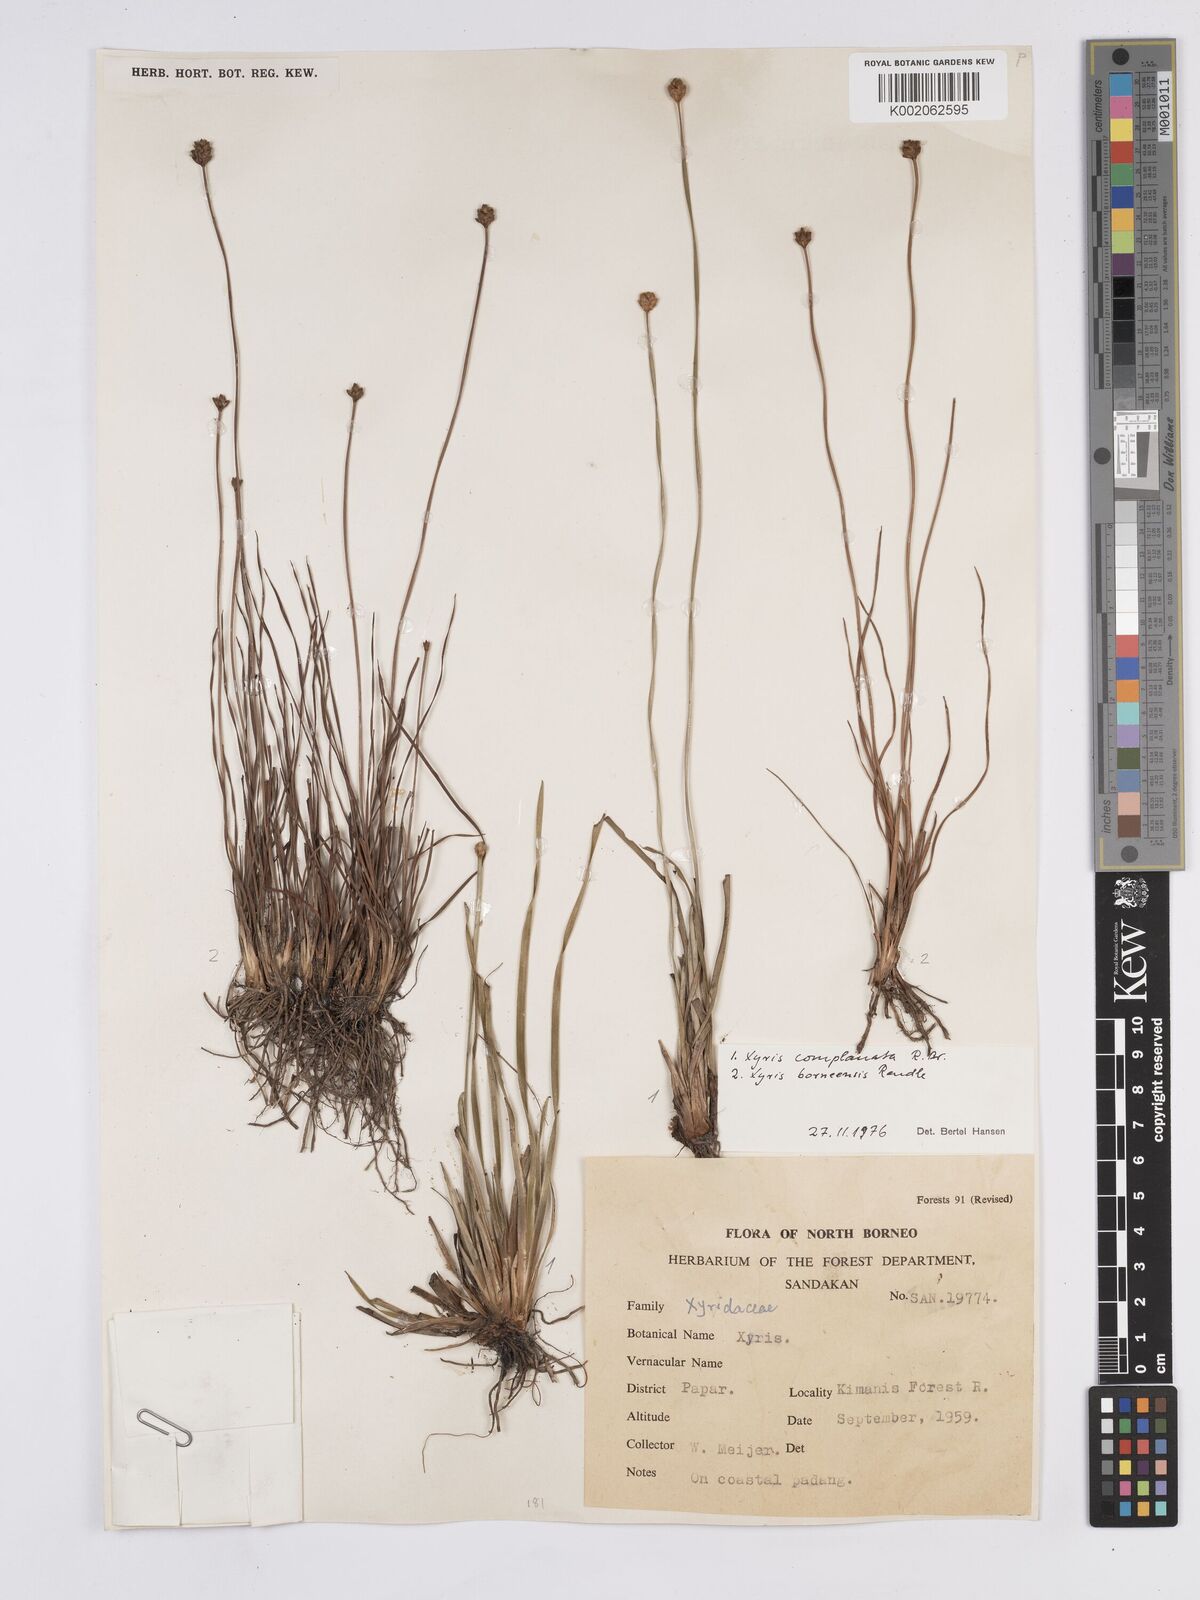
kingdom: Plantae
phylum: Tracheophyta
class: Liliopsida
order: Poales
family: Xyridaceae
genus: Xyris
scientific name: Xyris bancana
